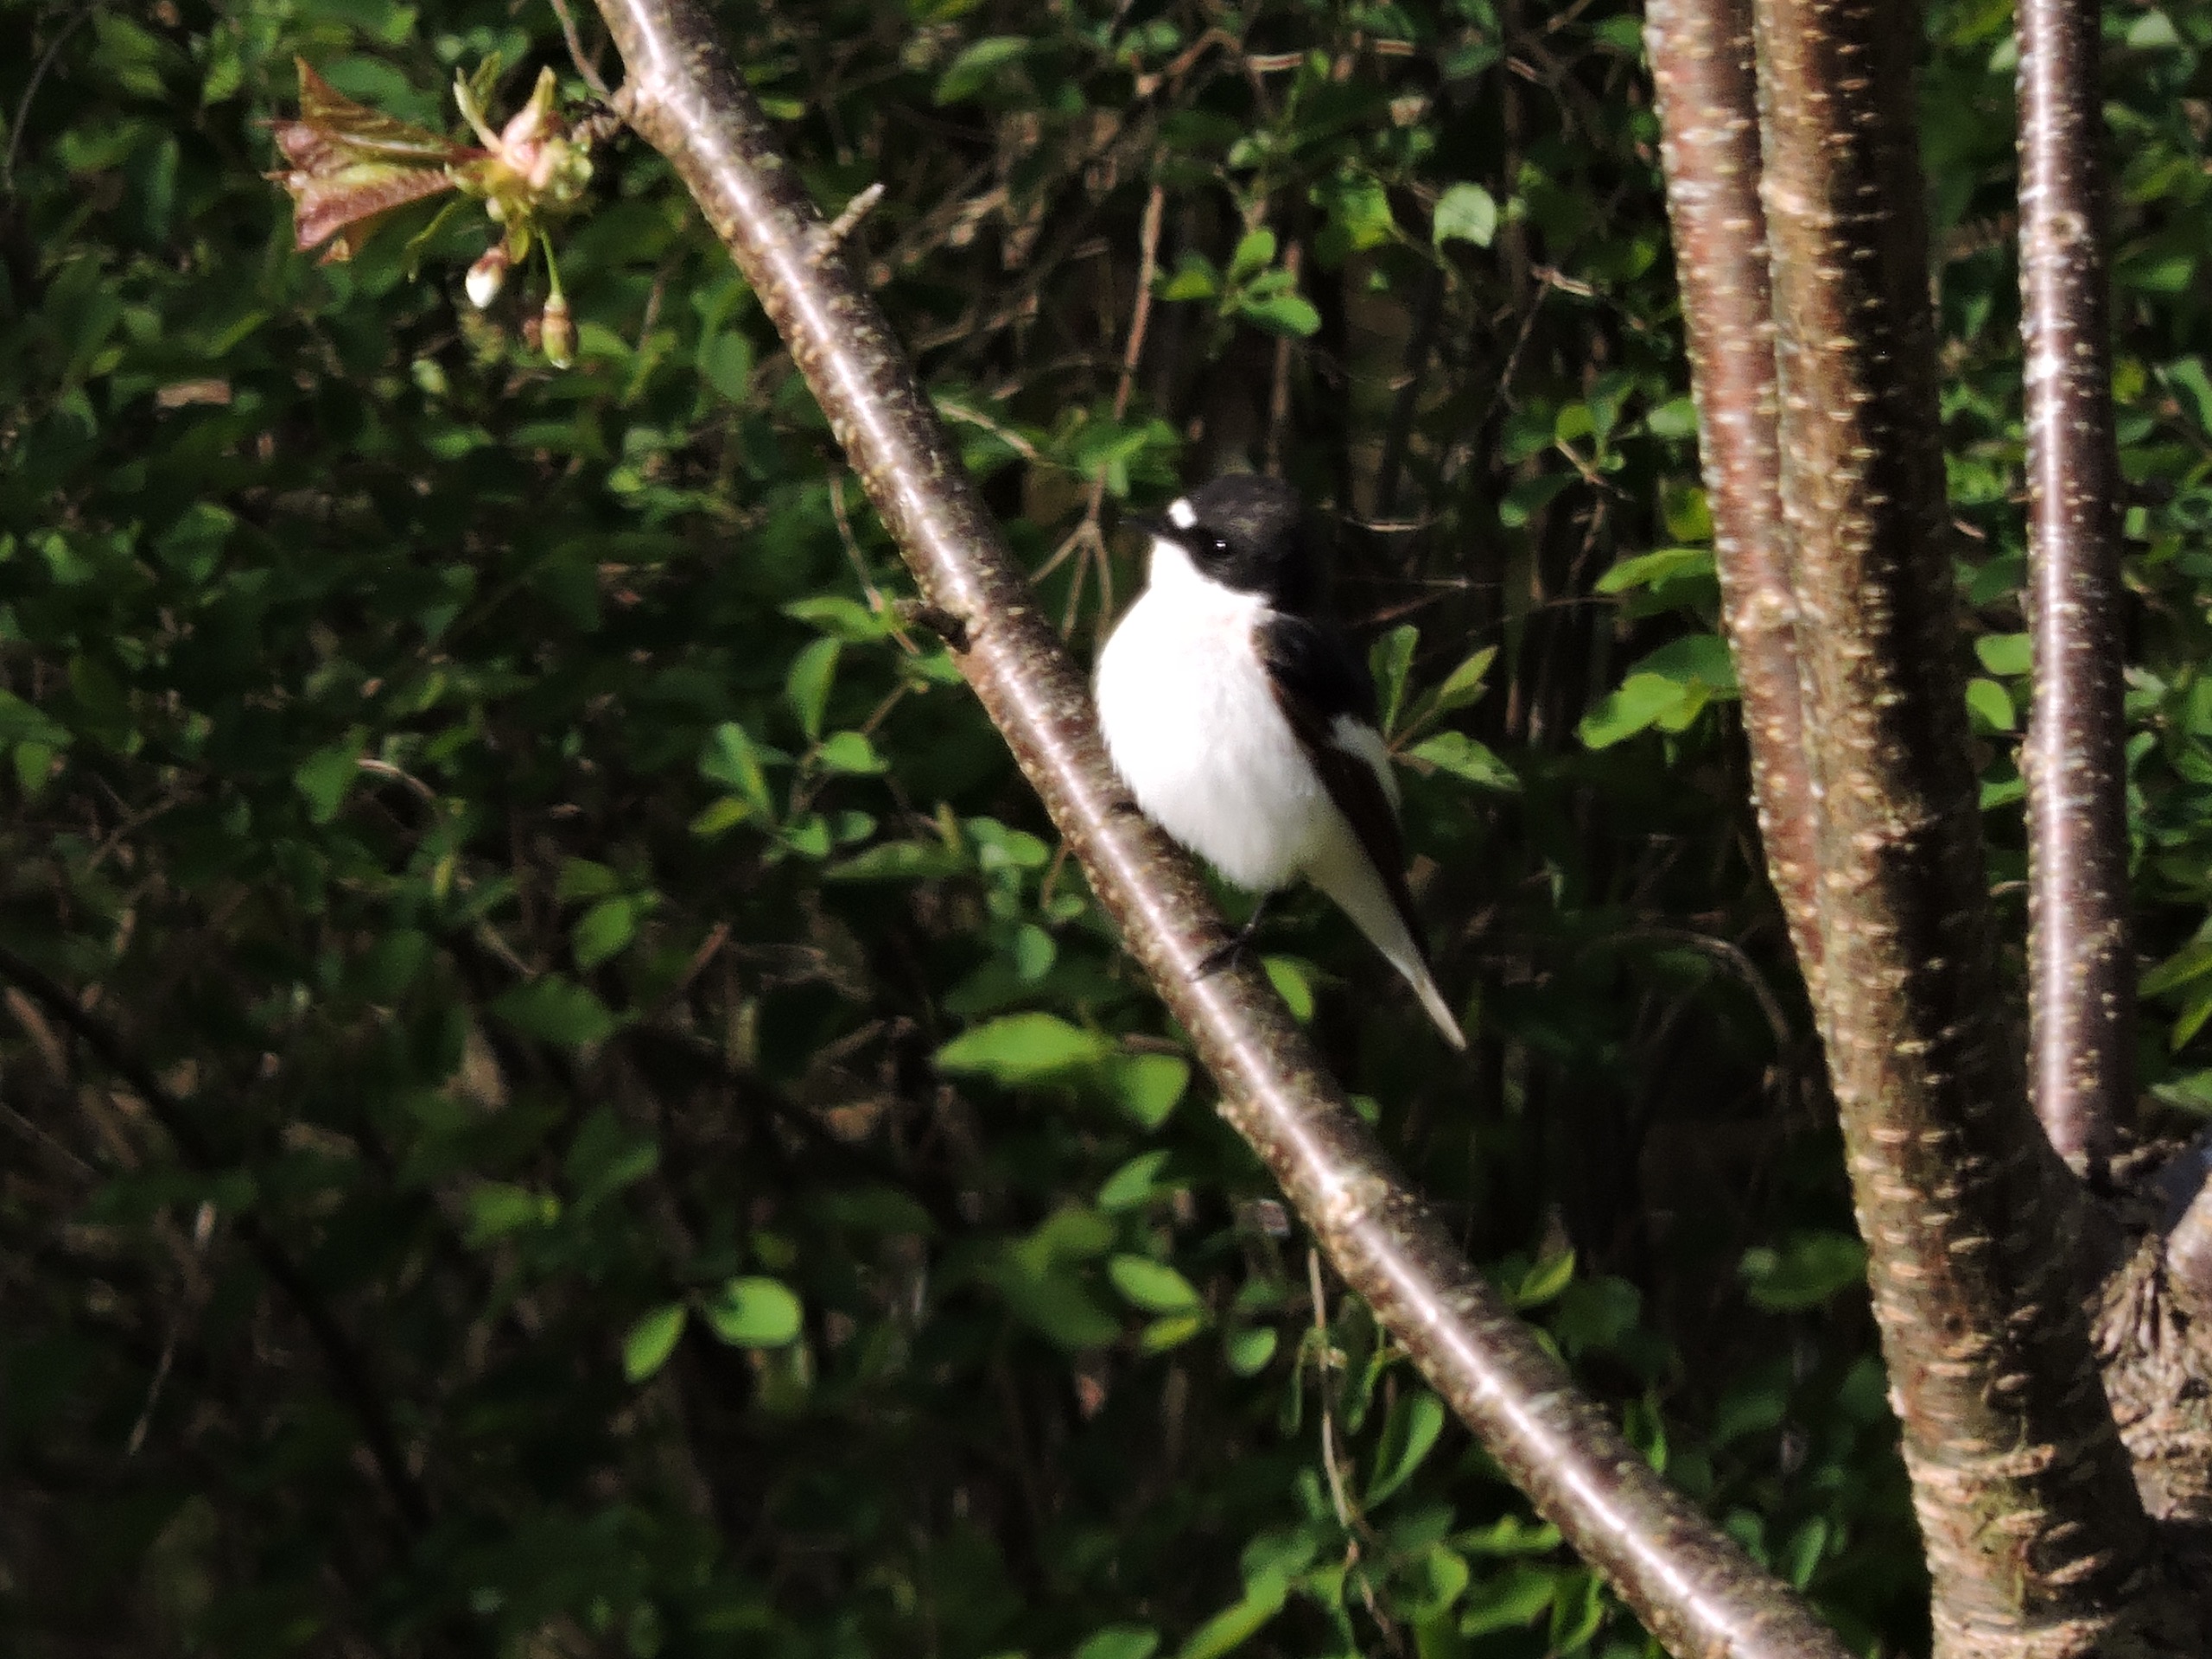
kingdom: Animalia
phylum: Chordata
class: Aves
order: Passeriformes
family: Muscicapidae
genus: Ficedula
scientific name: Ficedula hypoleuca
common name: Broget fluesnapper
